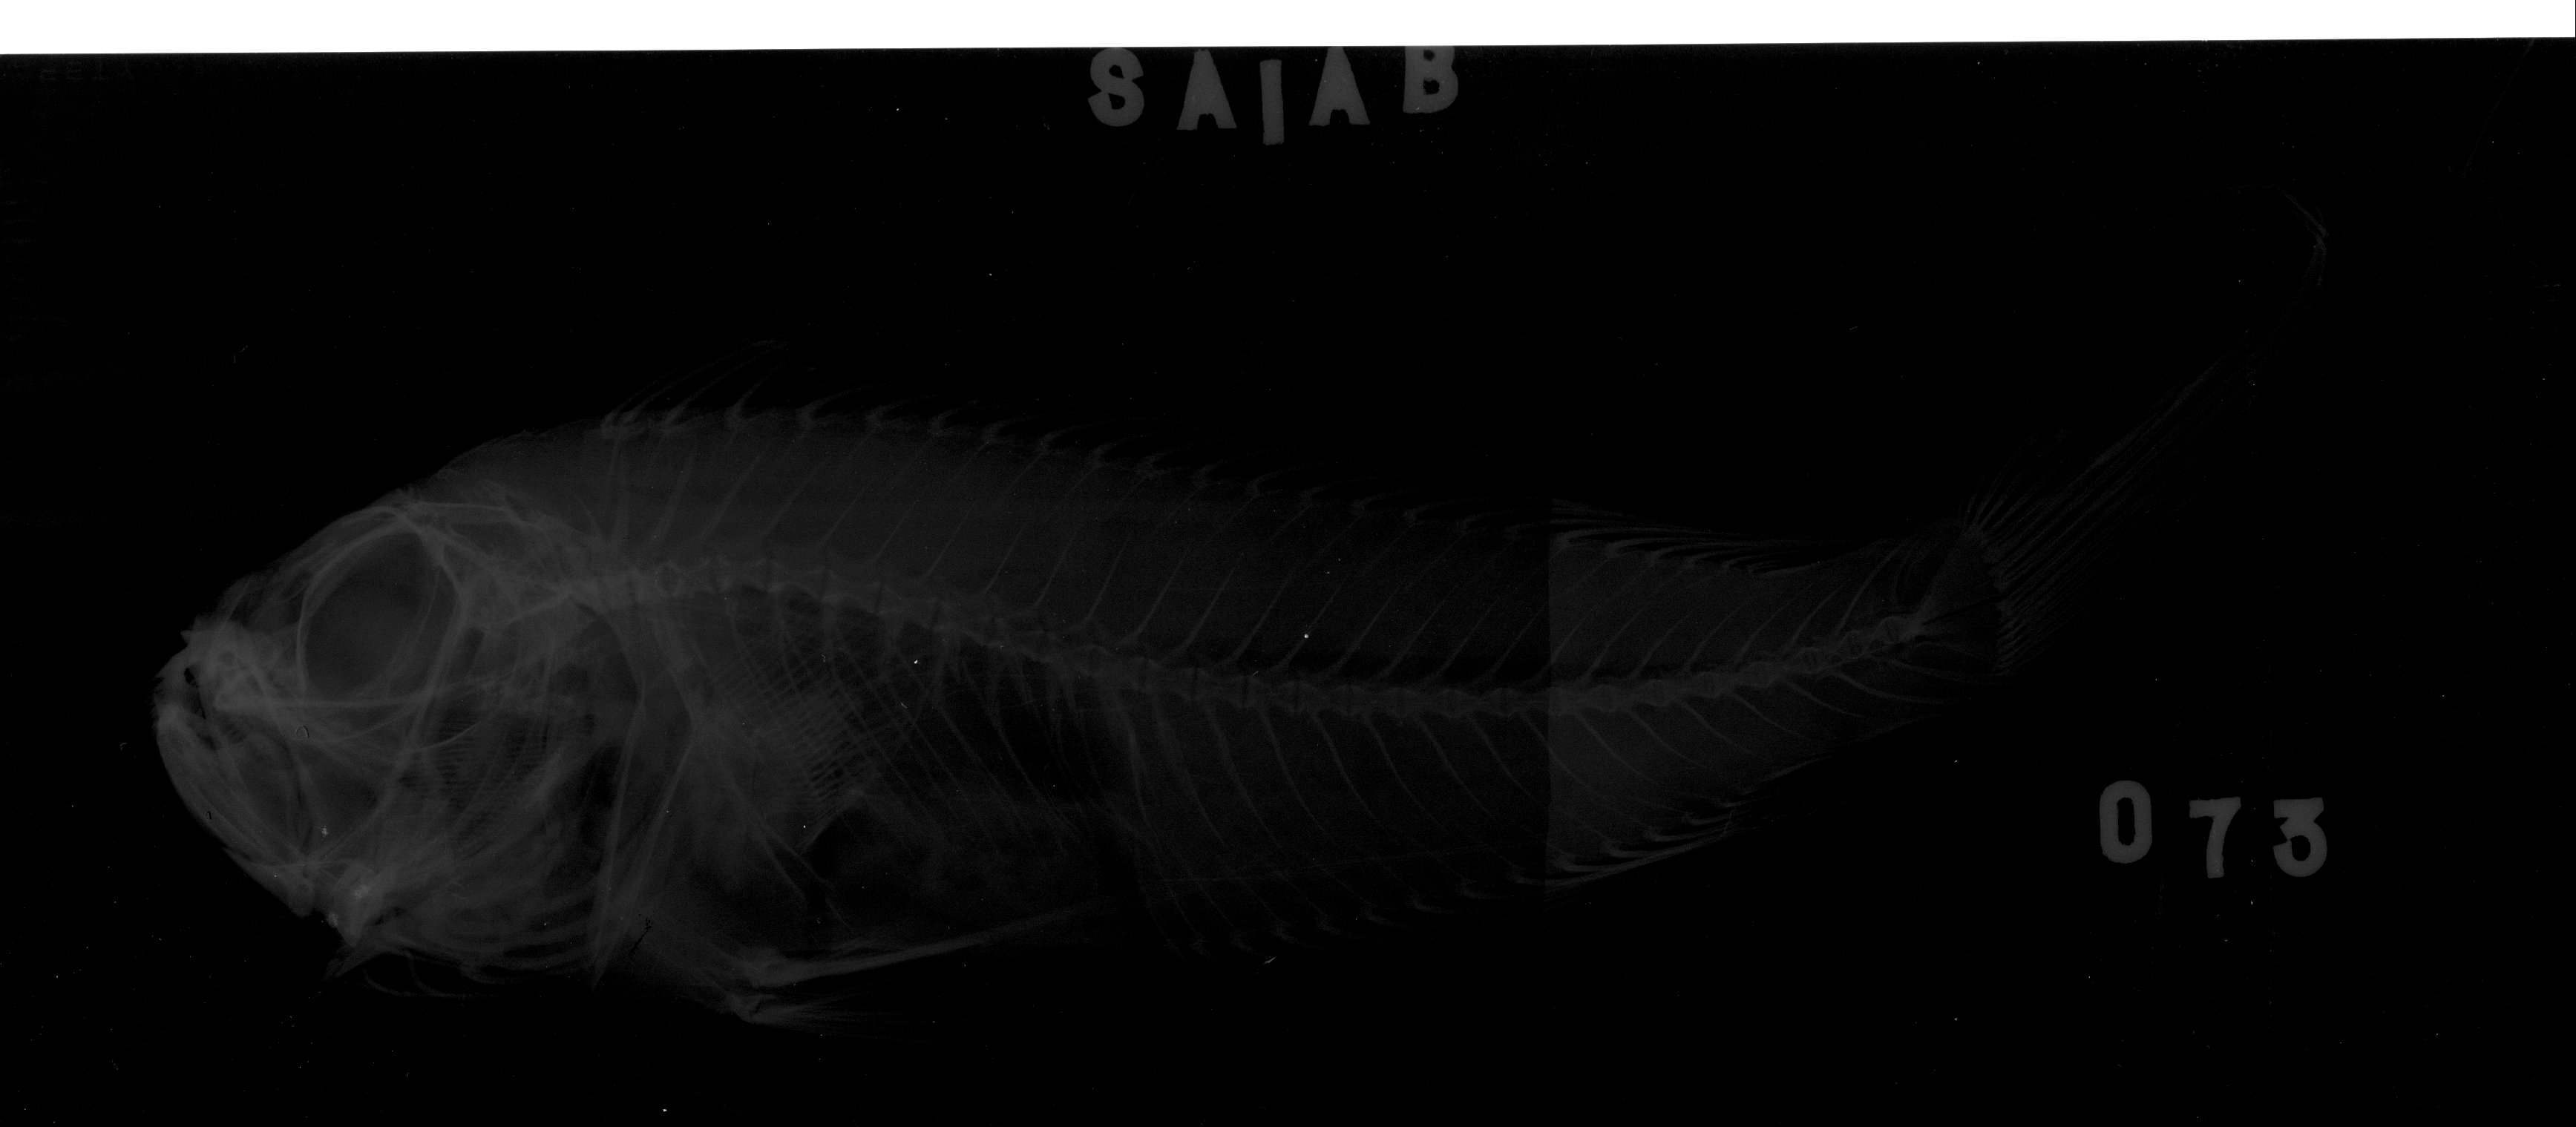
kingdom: Animalia
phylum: Chordata
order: Perciformes
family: Cepolidae
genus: Owstonia
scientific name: Owstonia weberi
